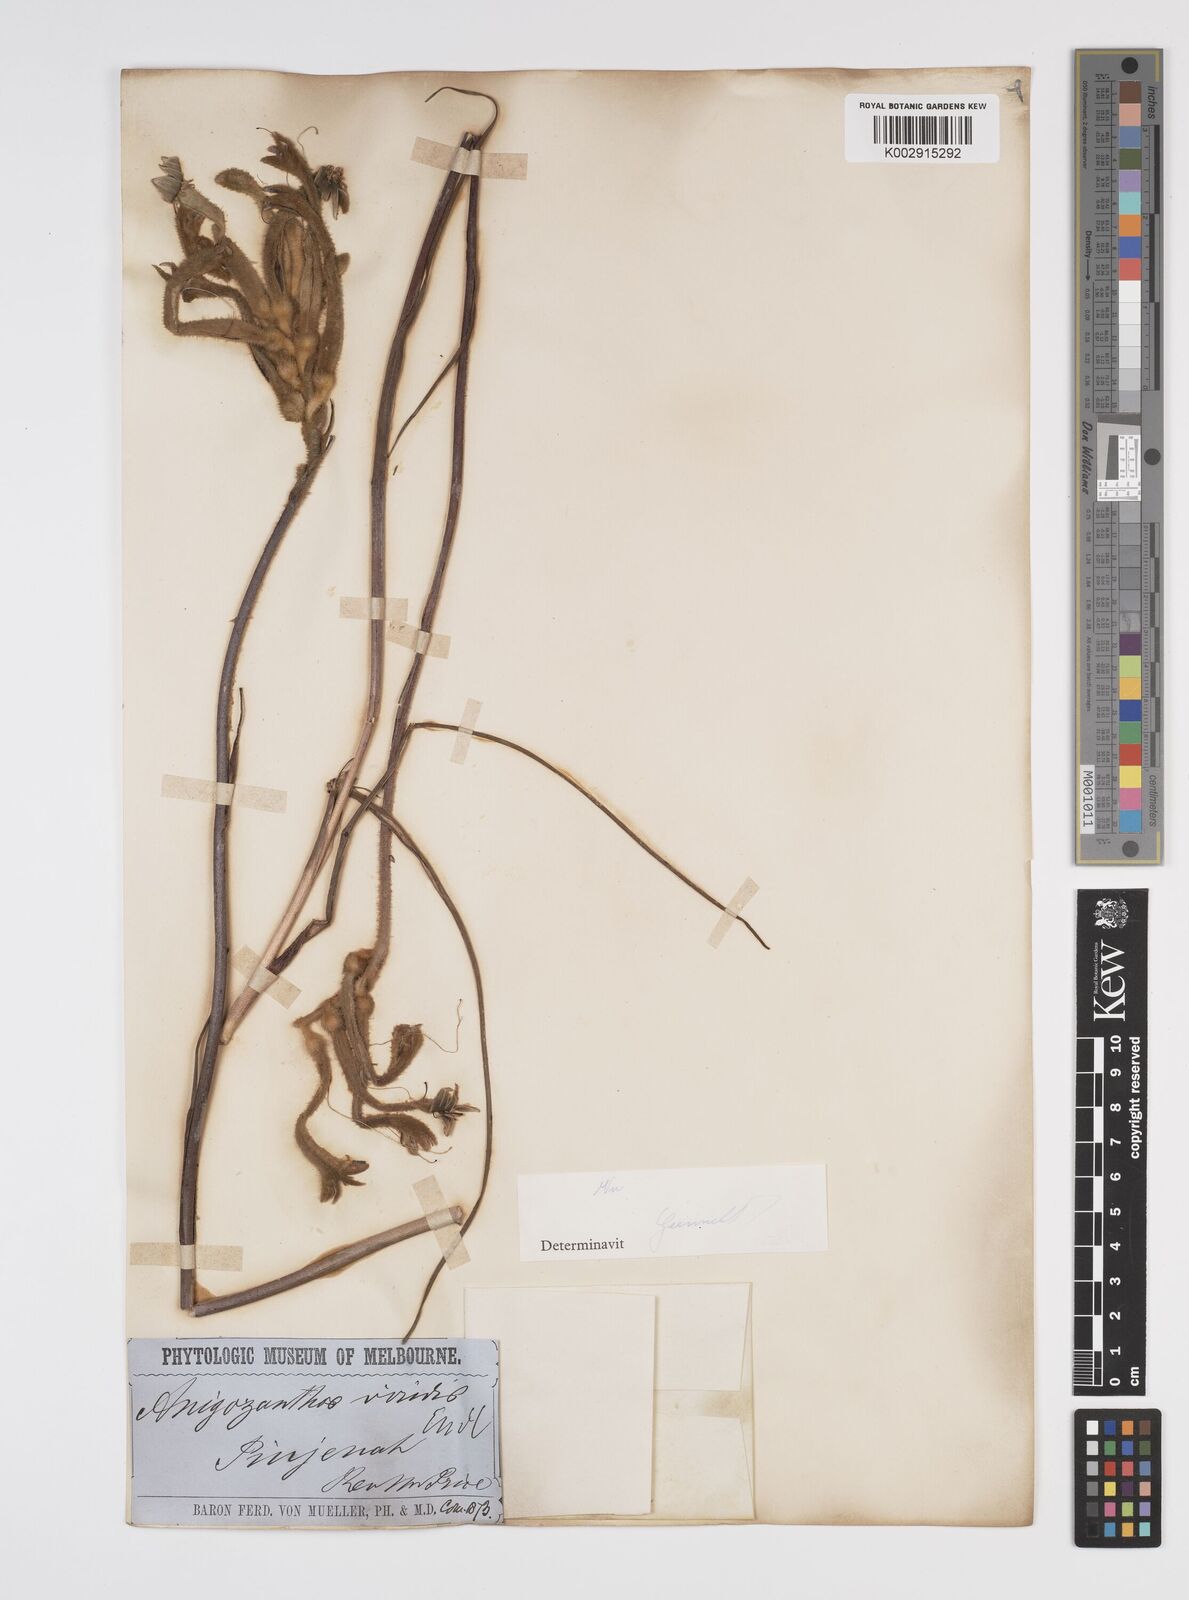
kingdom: Plantae
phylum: Tracheophyta
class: Liliopsida
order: Commelinales
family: Haemodoraceae
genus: Anigozanthos
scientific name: Anigozanthos viridis
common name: Green kangaroo-paw
